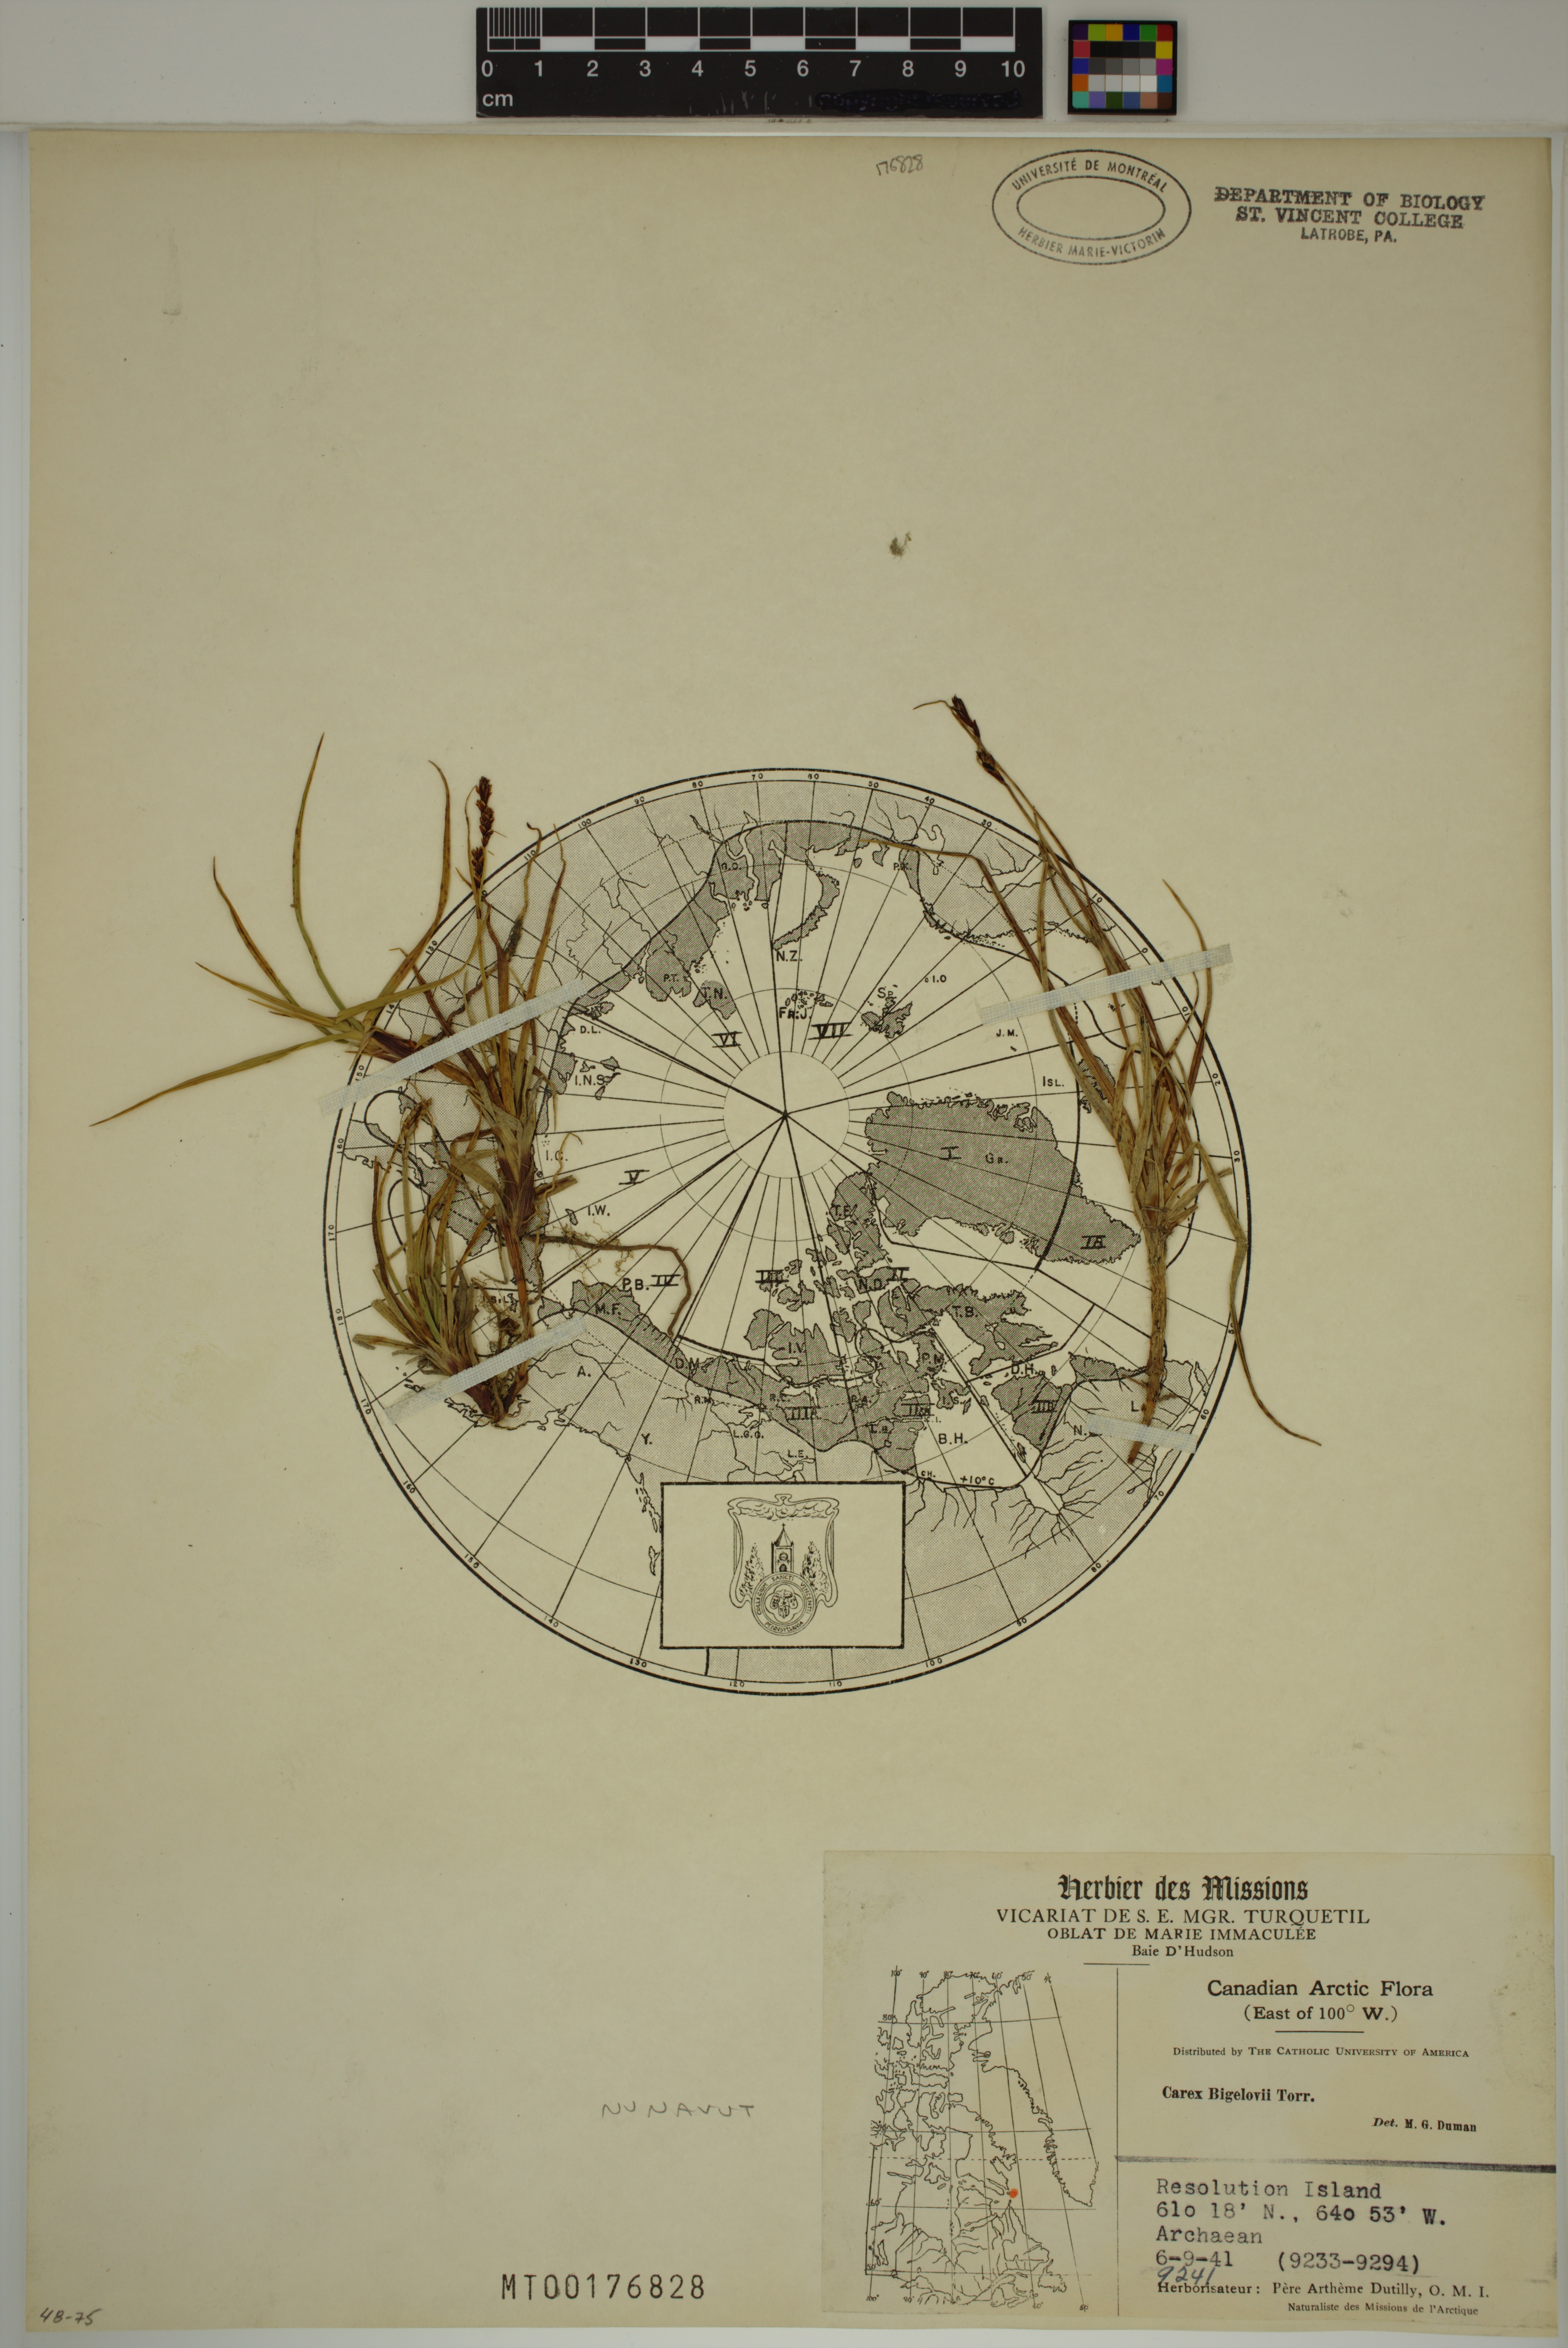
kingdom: Plantae
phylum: Tracheophyta
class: Liliopsida
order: Poales
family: Cyperaceae
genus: Carex
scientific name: Carex bigelowii
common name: Stiff sedge
